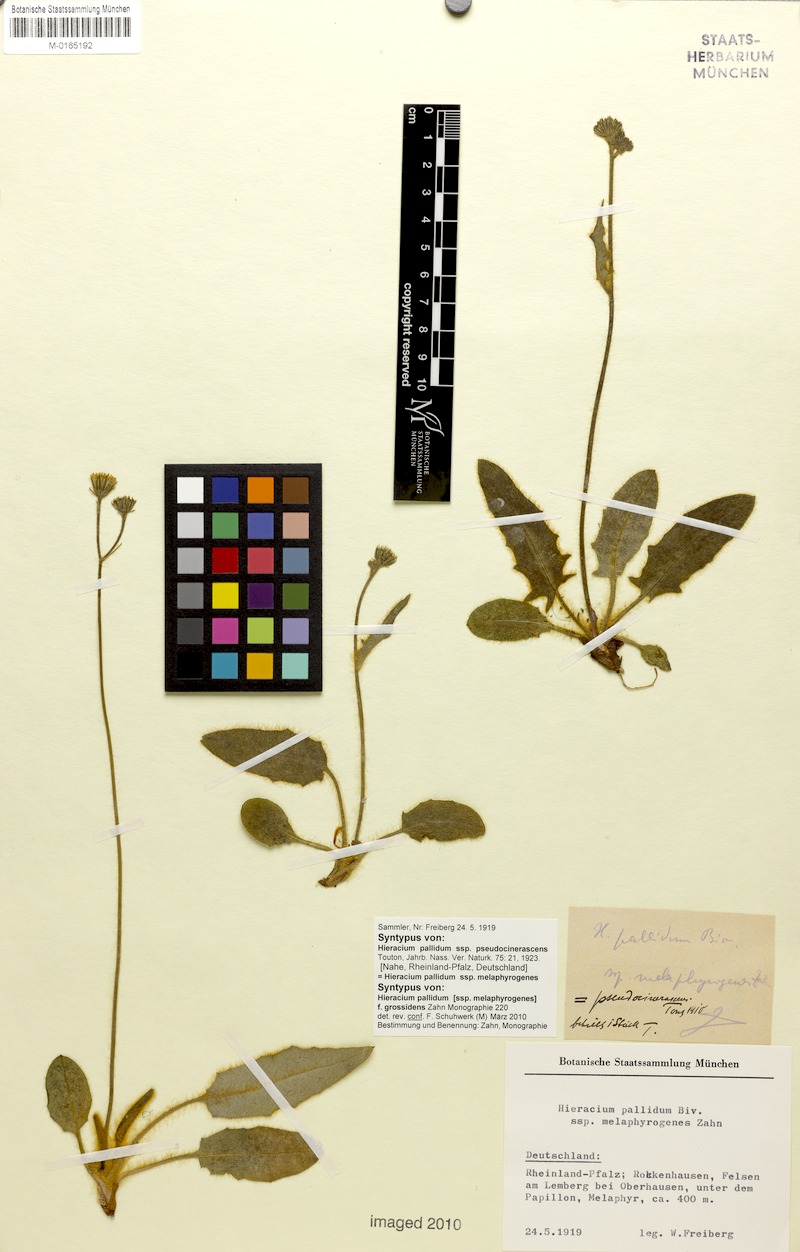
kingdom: Plantae
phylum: Tracheophyta
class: Magnoliopsida
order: Asterales
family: Asteraceae
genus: Hieracium
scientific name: Hieracium schmidtii
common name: Schmidt's hawkweed
